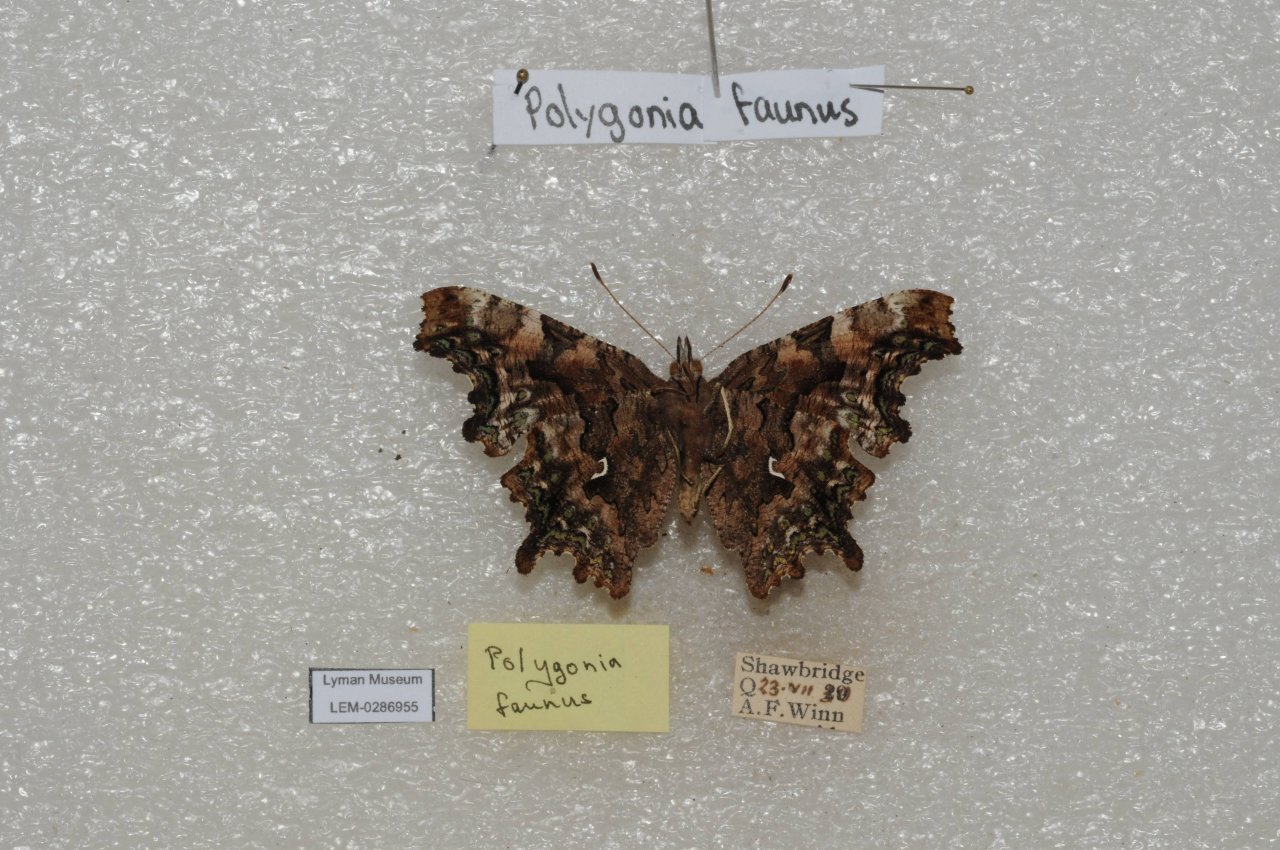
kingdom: Animalia
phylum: Arthropoda
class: Insecta
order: Lepidoptera
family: Nymphalidae
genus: Polygonia
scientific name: Polygonia faunus
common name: Green Comma
